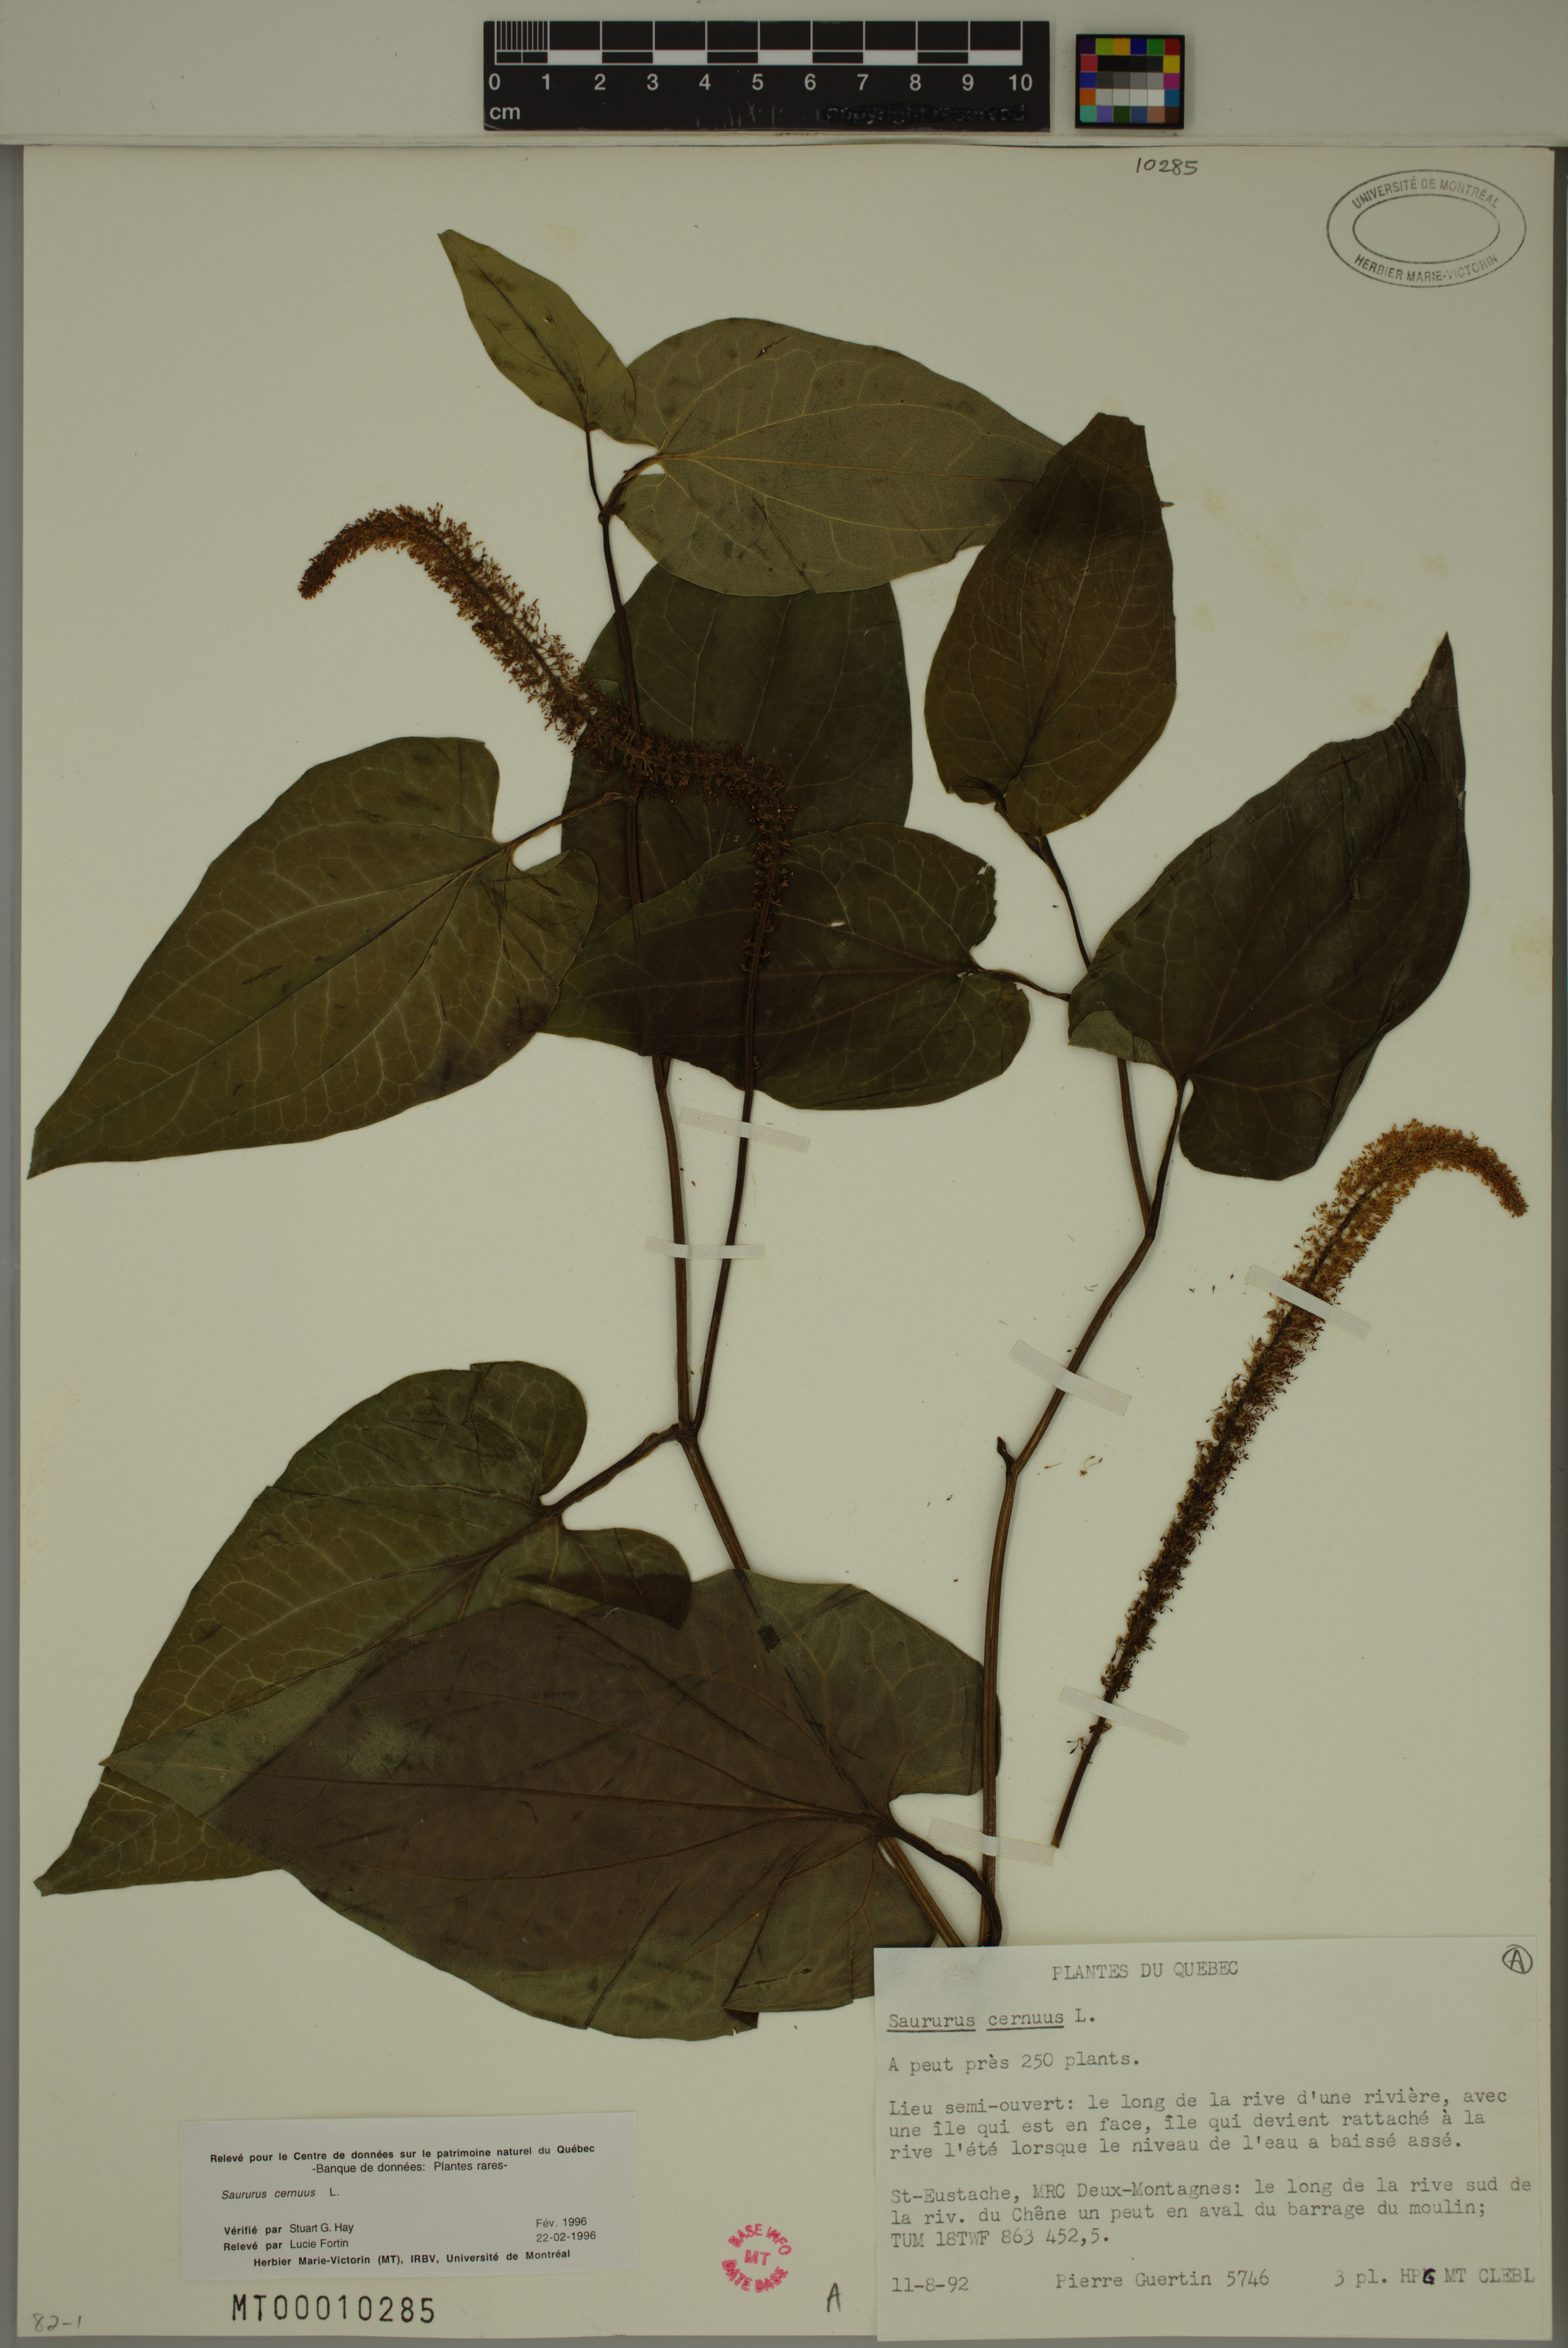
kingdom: Plantae
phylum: Tracheophyta
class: Magnoliopsida
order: Piperales
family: Saururaceae
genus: Saururus
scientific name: Saururus cernuus
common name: Lizard's-tail
